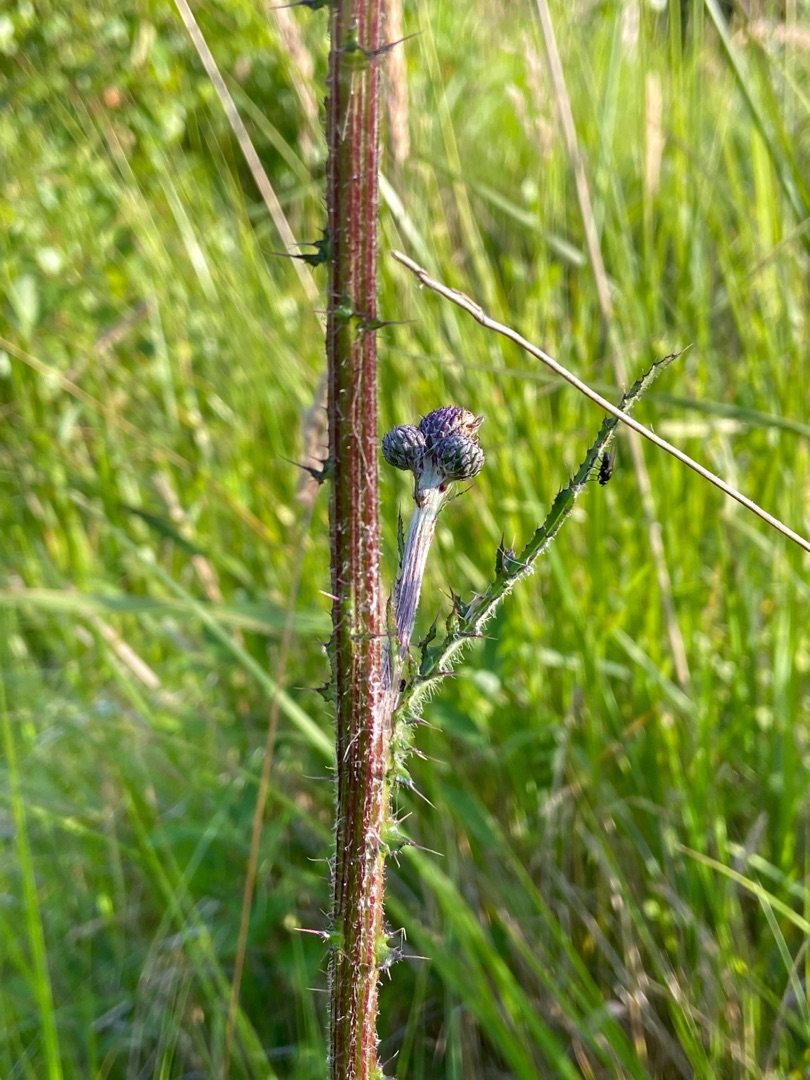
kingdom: Plantae
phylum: Tracheophyta
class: Magnoliopsida
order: Asterales
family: Asteraceae
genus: Cirsium
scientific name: Cirsium palustre
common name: Kær-tidsel
